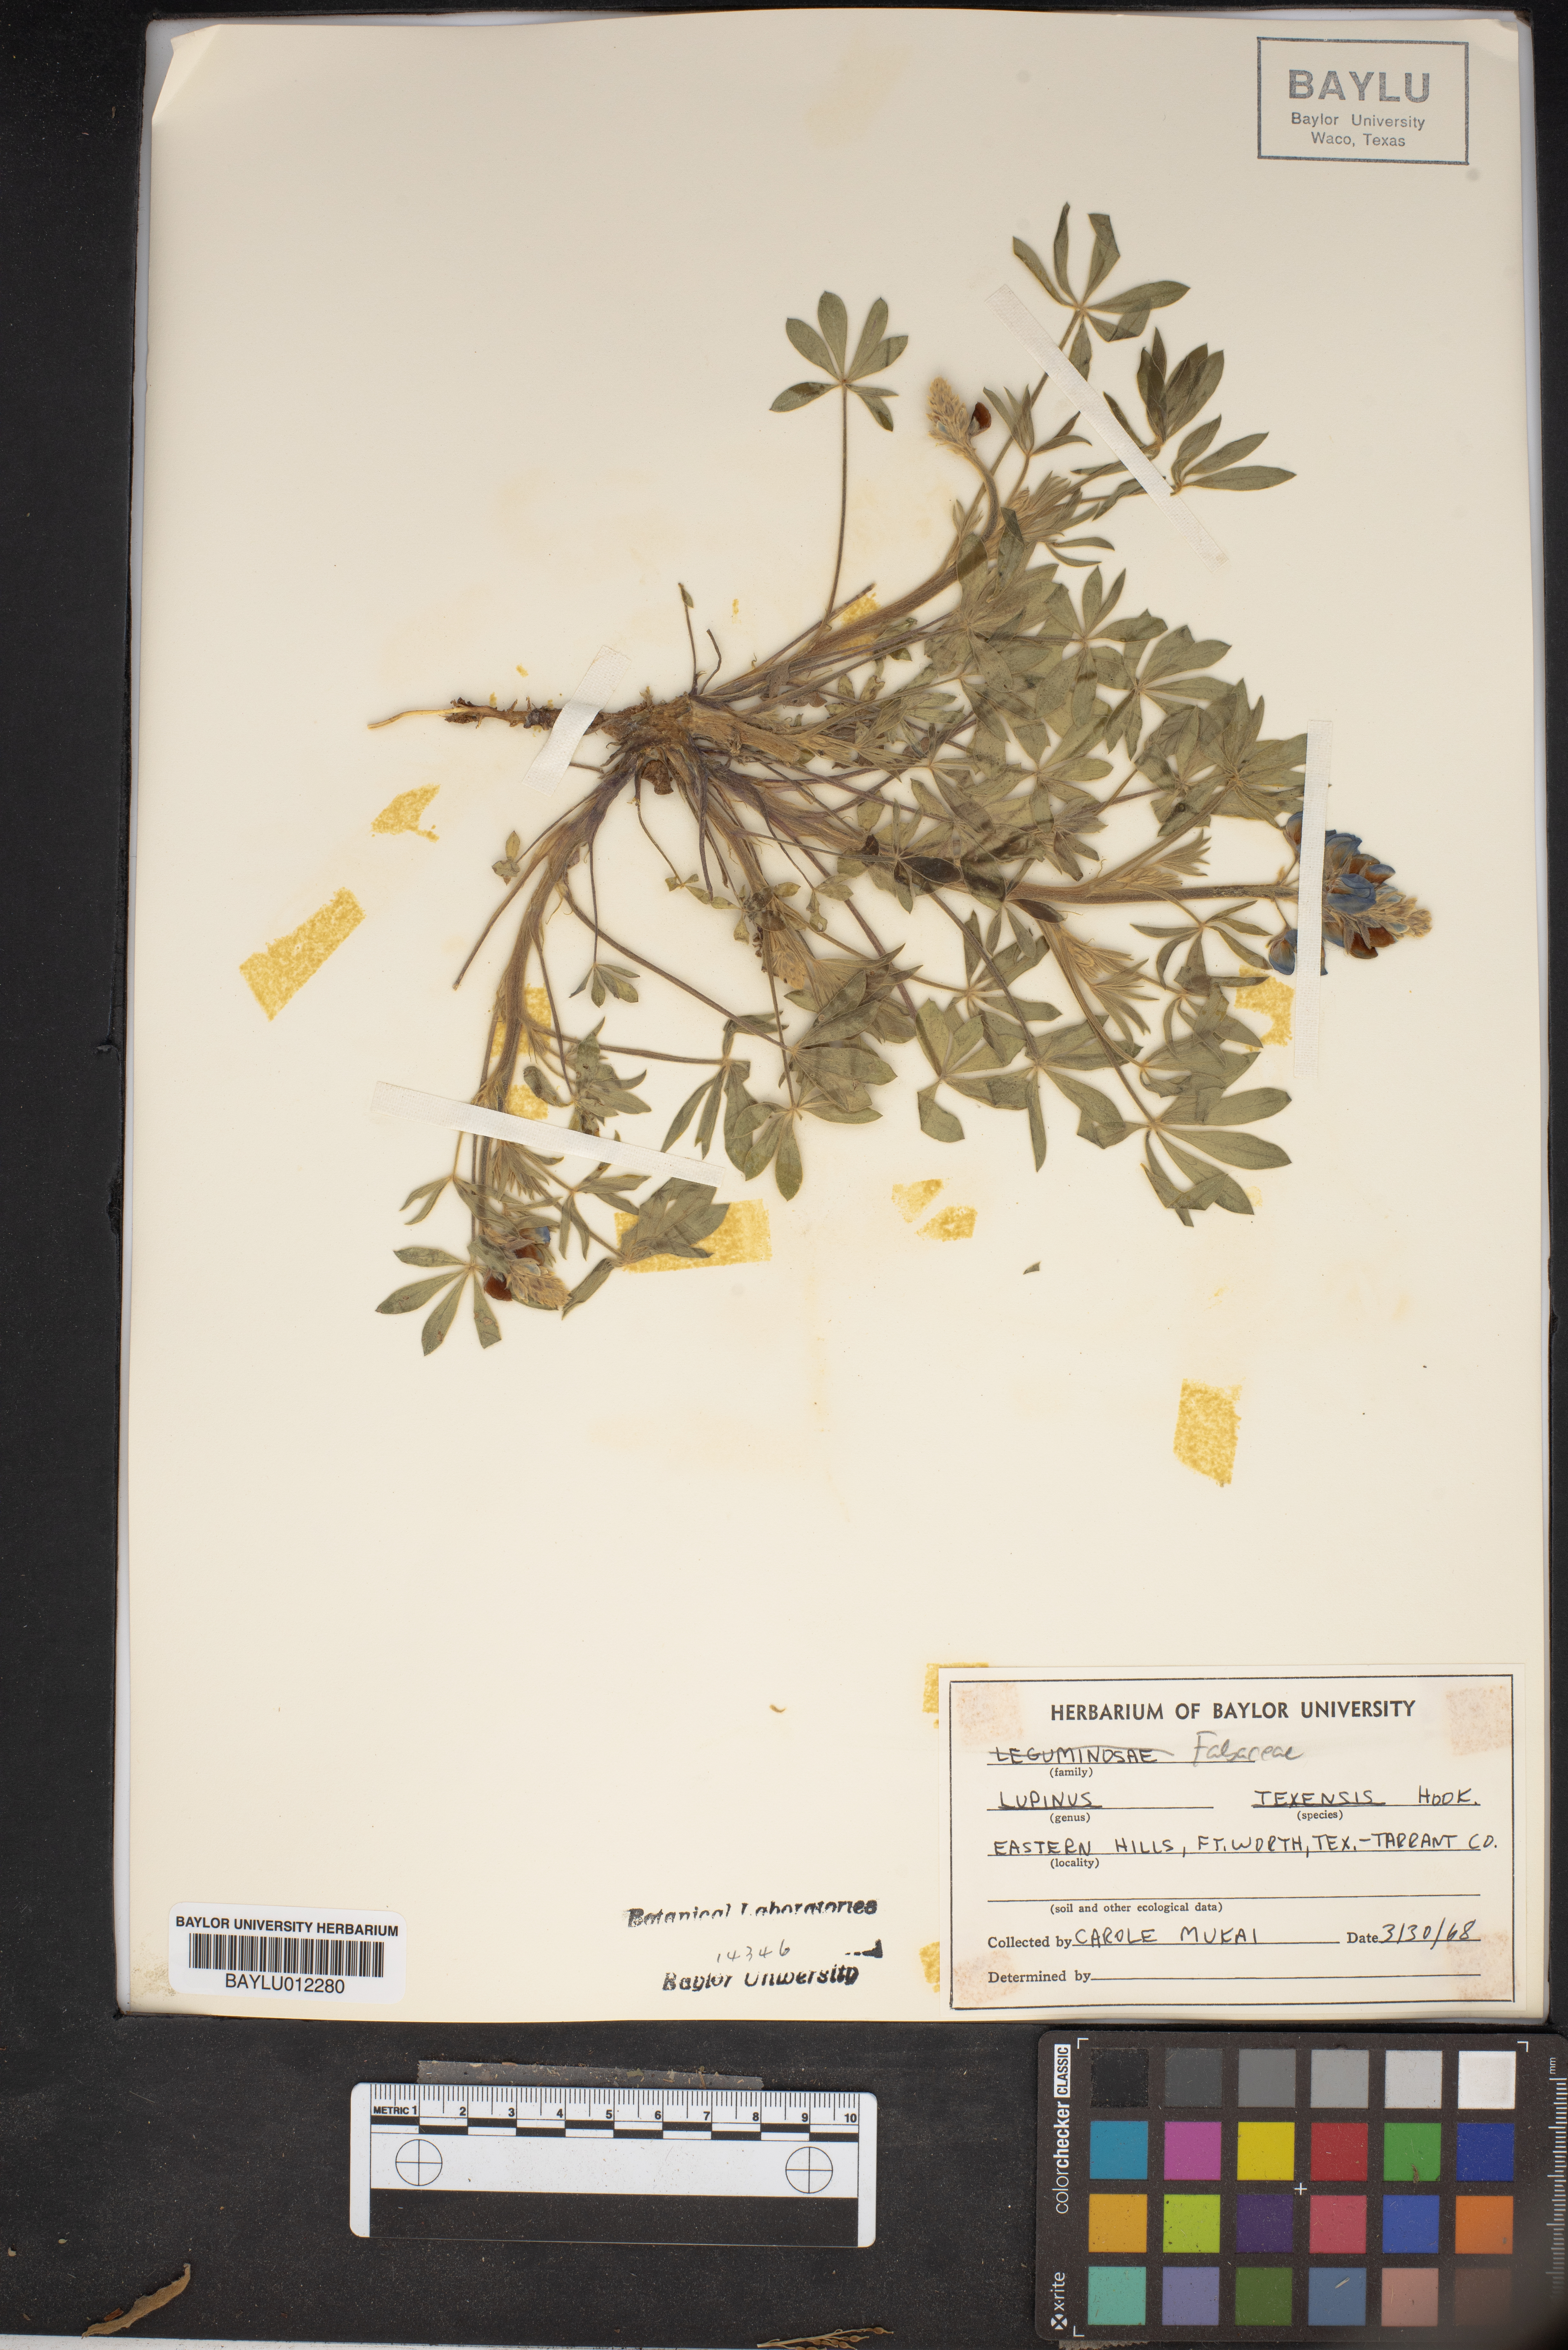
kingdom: Plantae
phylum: Tracheophyta
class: Magnoliopsida
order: Fabales
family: Fabaceae
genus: Lupinus
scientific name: Lupinus texensis
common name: Texas bluebonnet
